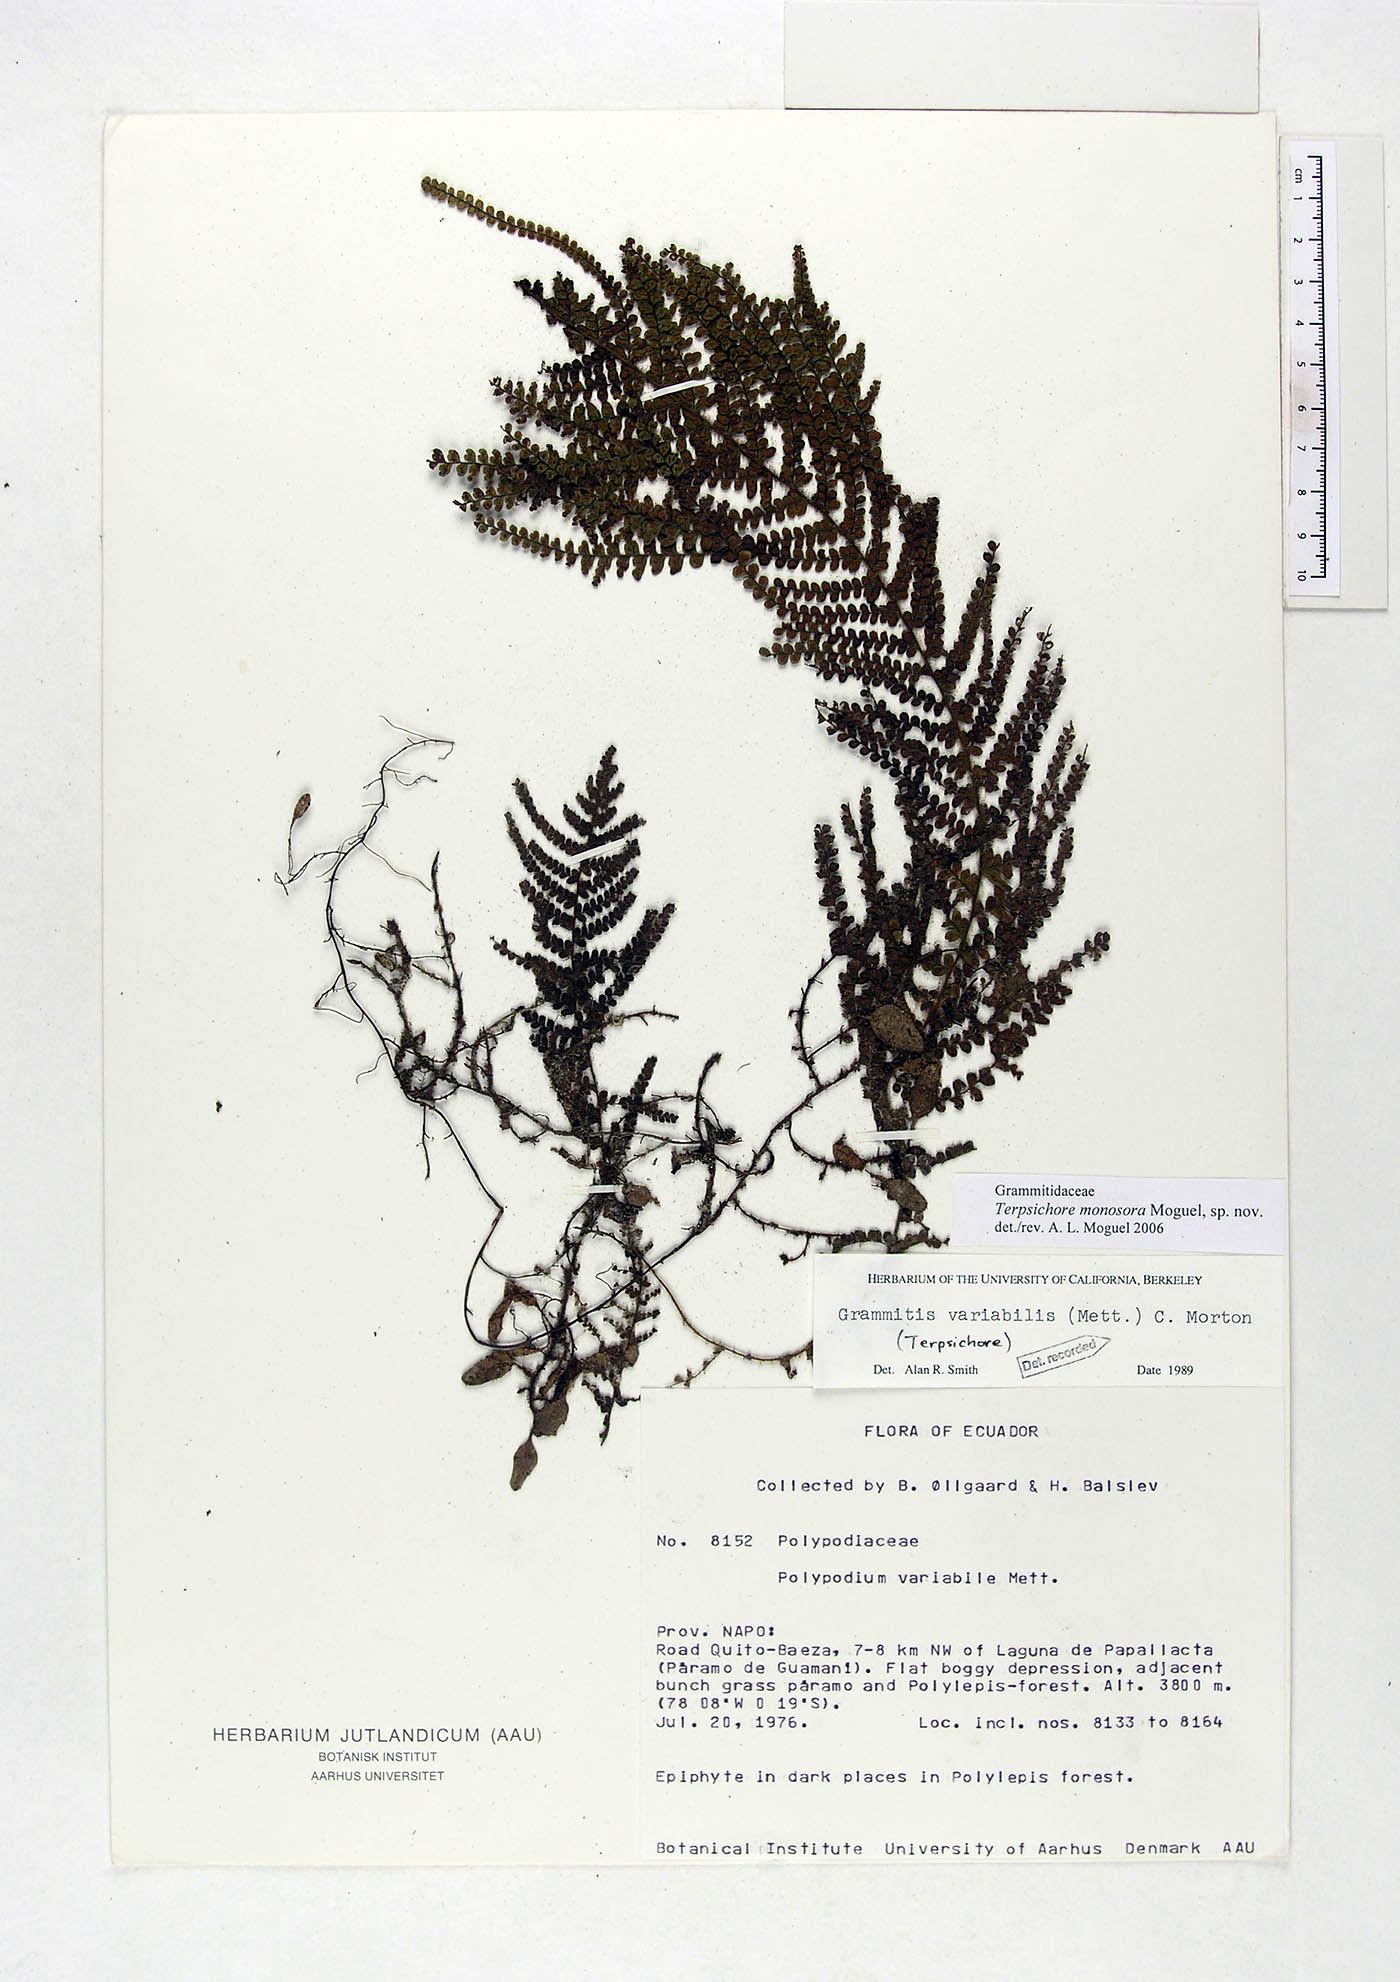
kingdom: Plantae
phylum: Tracheophyta
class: Polypodiopsida
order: Polypodiales
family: Polypodiaceae
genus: Alansmia
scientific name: Alansmia monosora
